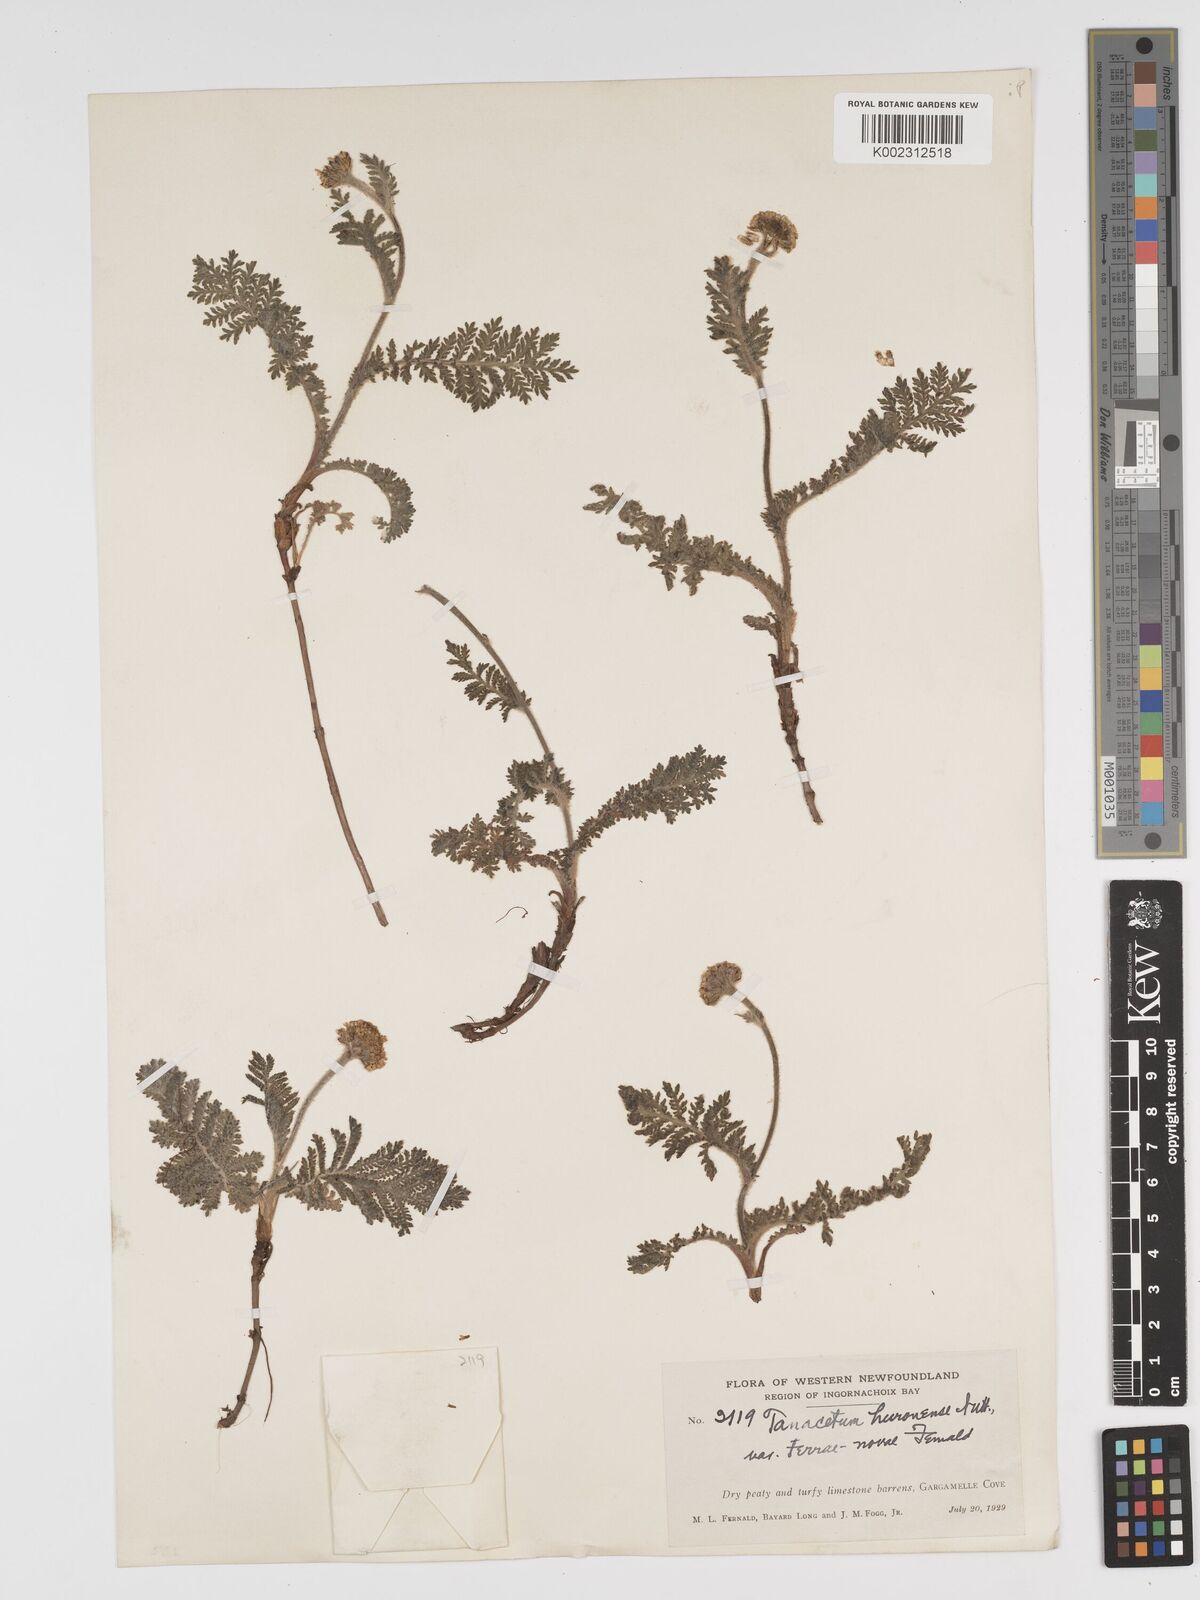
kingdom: Plantae
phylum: Tracheophyta
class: Magnoliopsida
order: Asterales
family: Asteraceae
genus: Tanacetum
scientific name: Tanacetum bipinnatum
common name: Dwarf tansy
